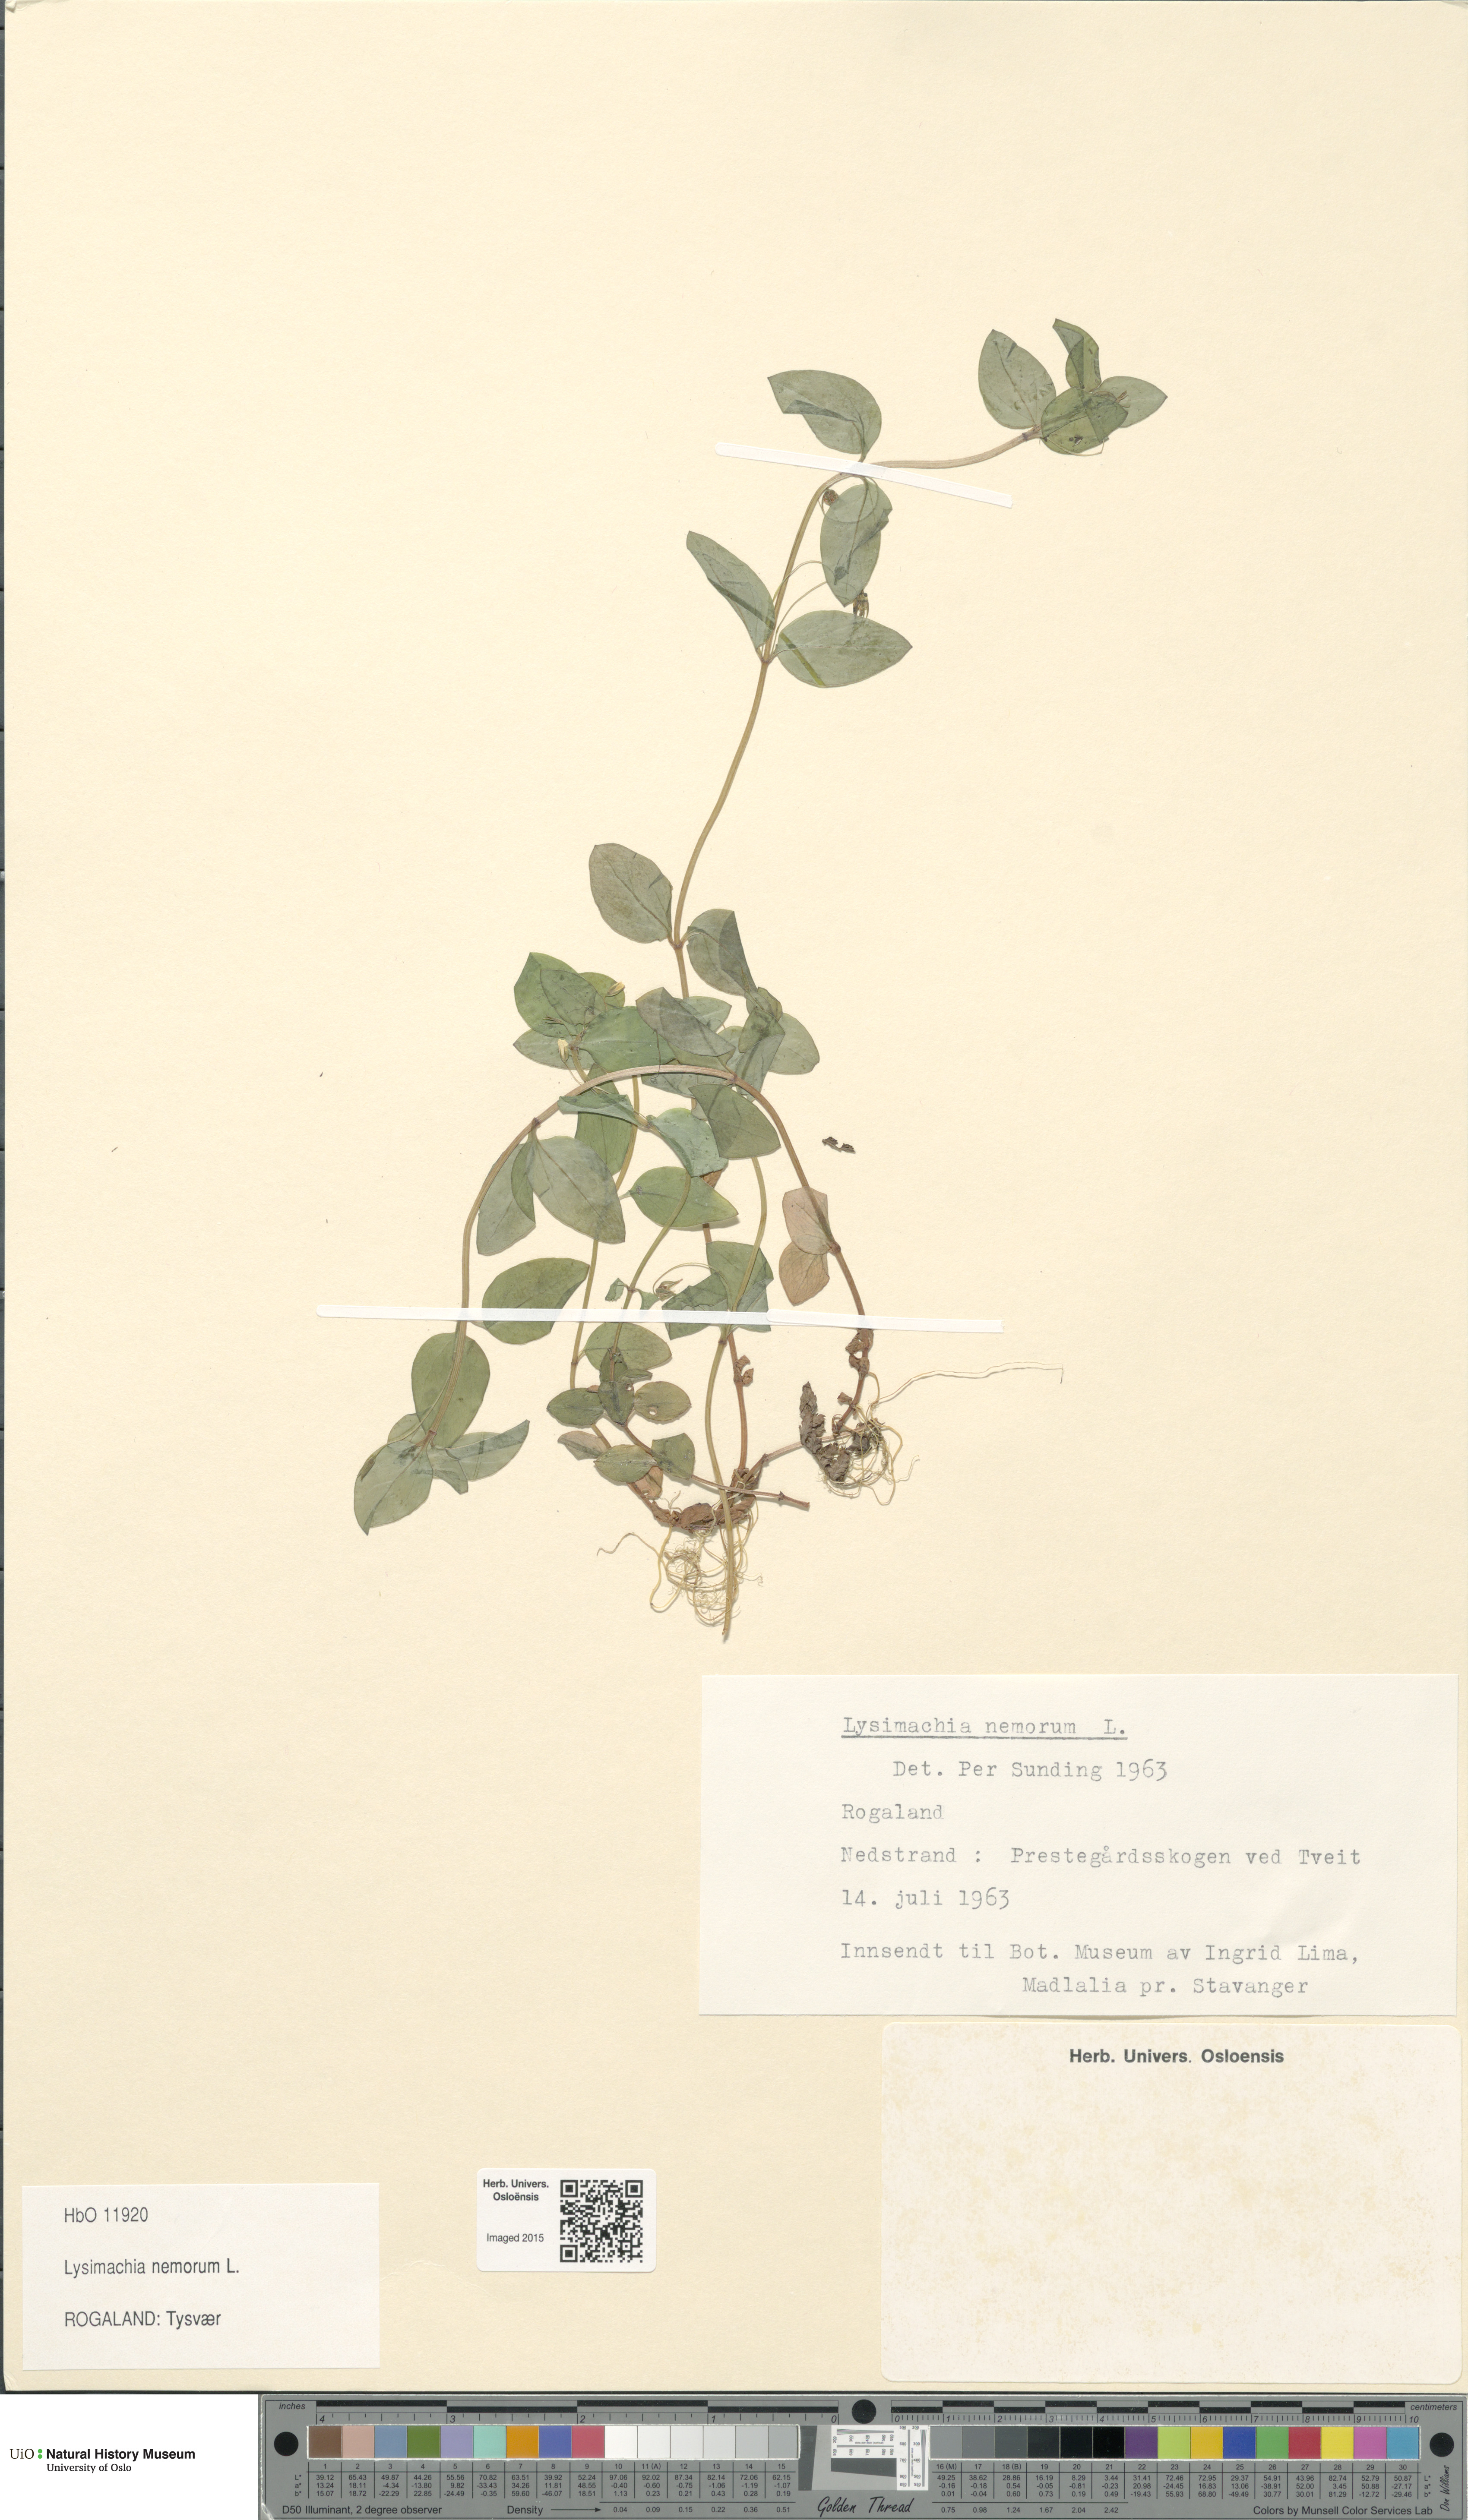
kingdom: Plantae
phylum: Tracheophyta
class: Magnoliopsida
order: Ericales
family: Primulaceae
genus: Lysimachia
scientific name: Lysimachia nemorum
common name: Yellow pimpernel
